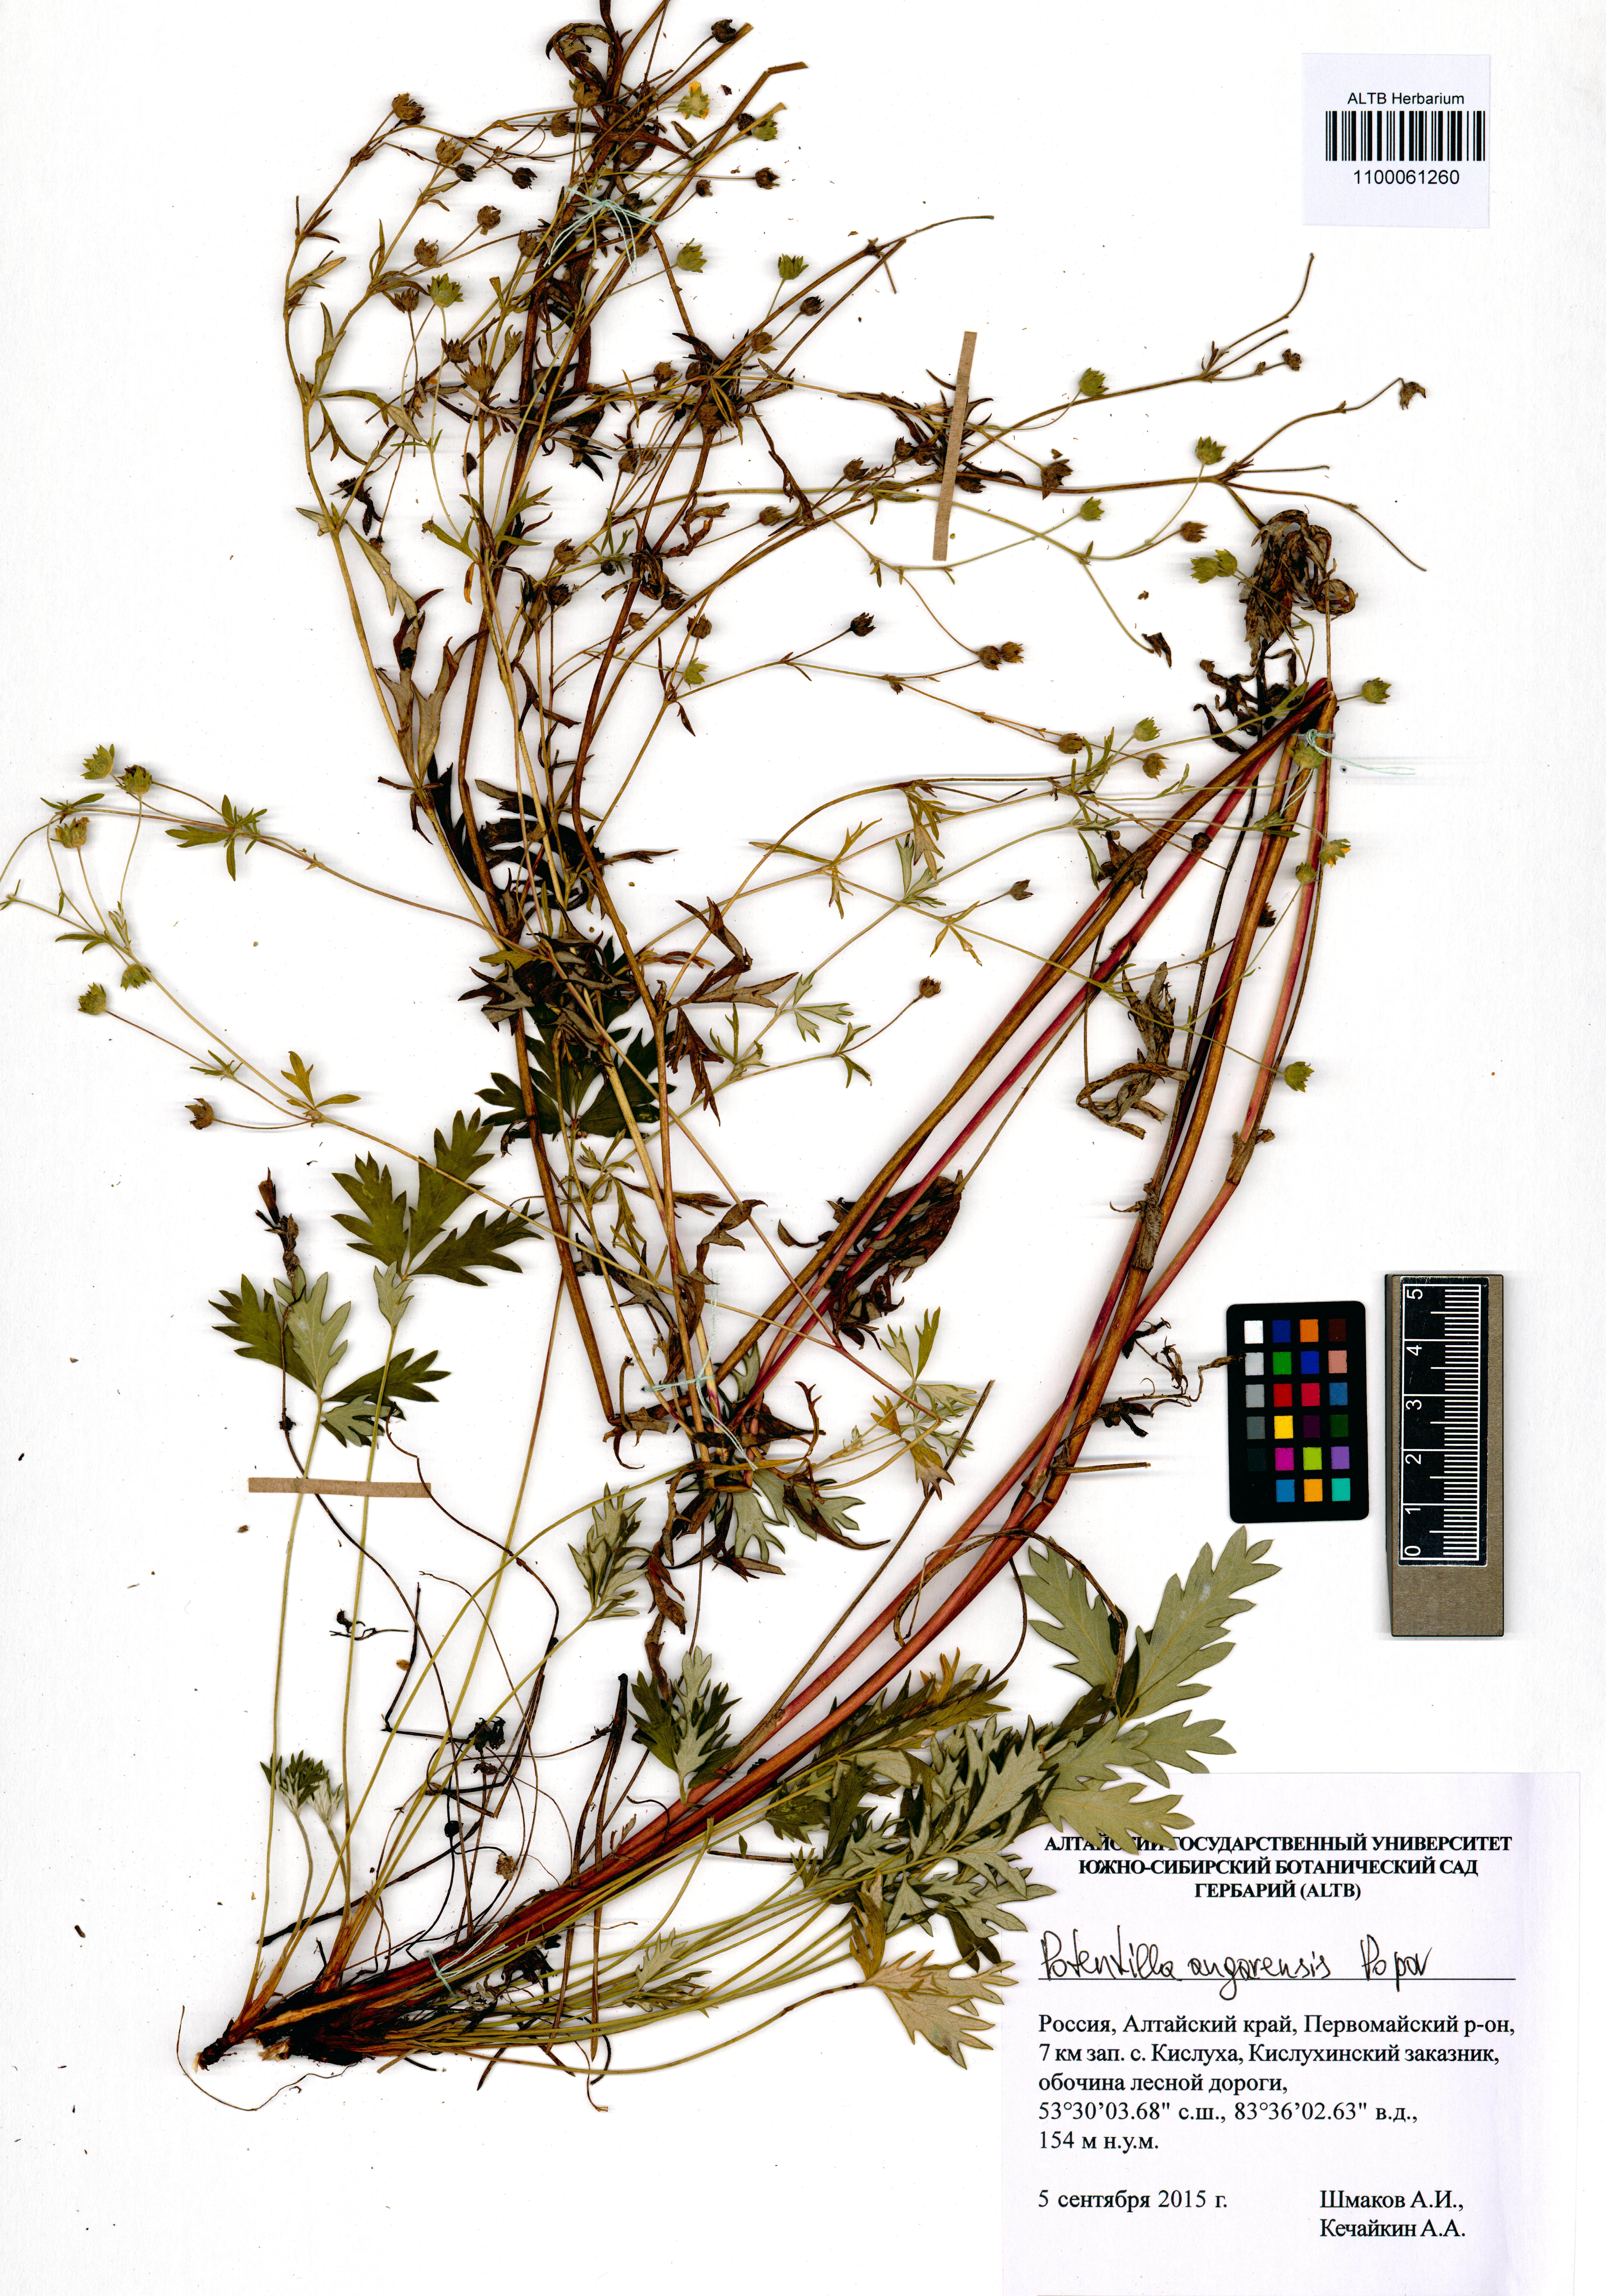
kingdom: Plantae
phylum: Tracheophyta
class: Magnoliopsida
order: Rosales
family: Rosaceae
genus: Potentilla
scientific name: Potentilla angarensis
